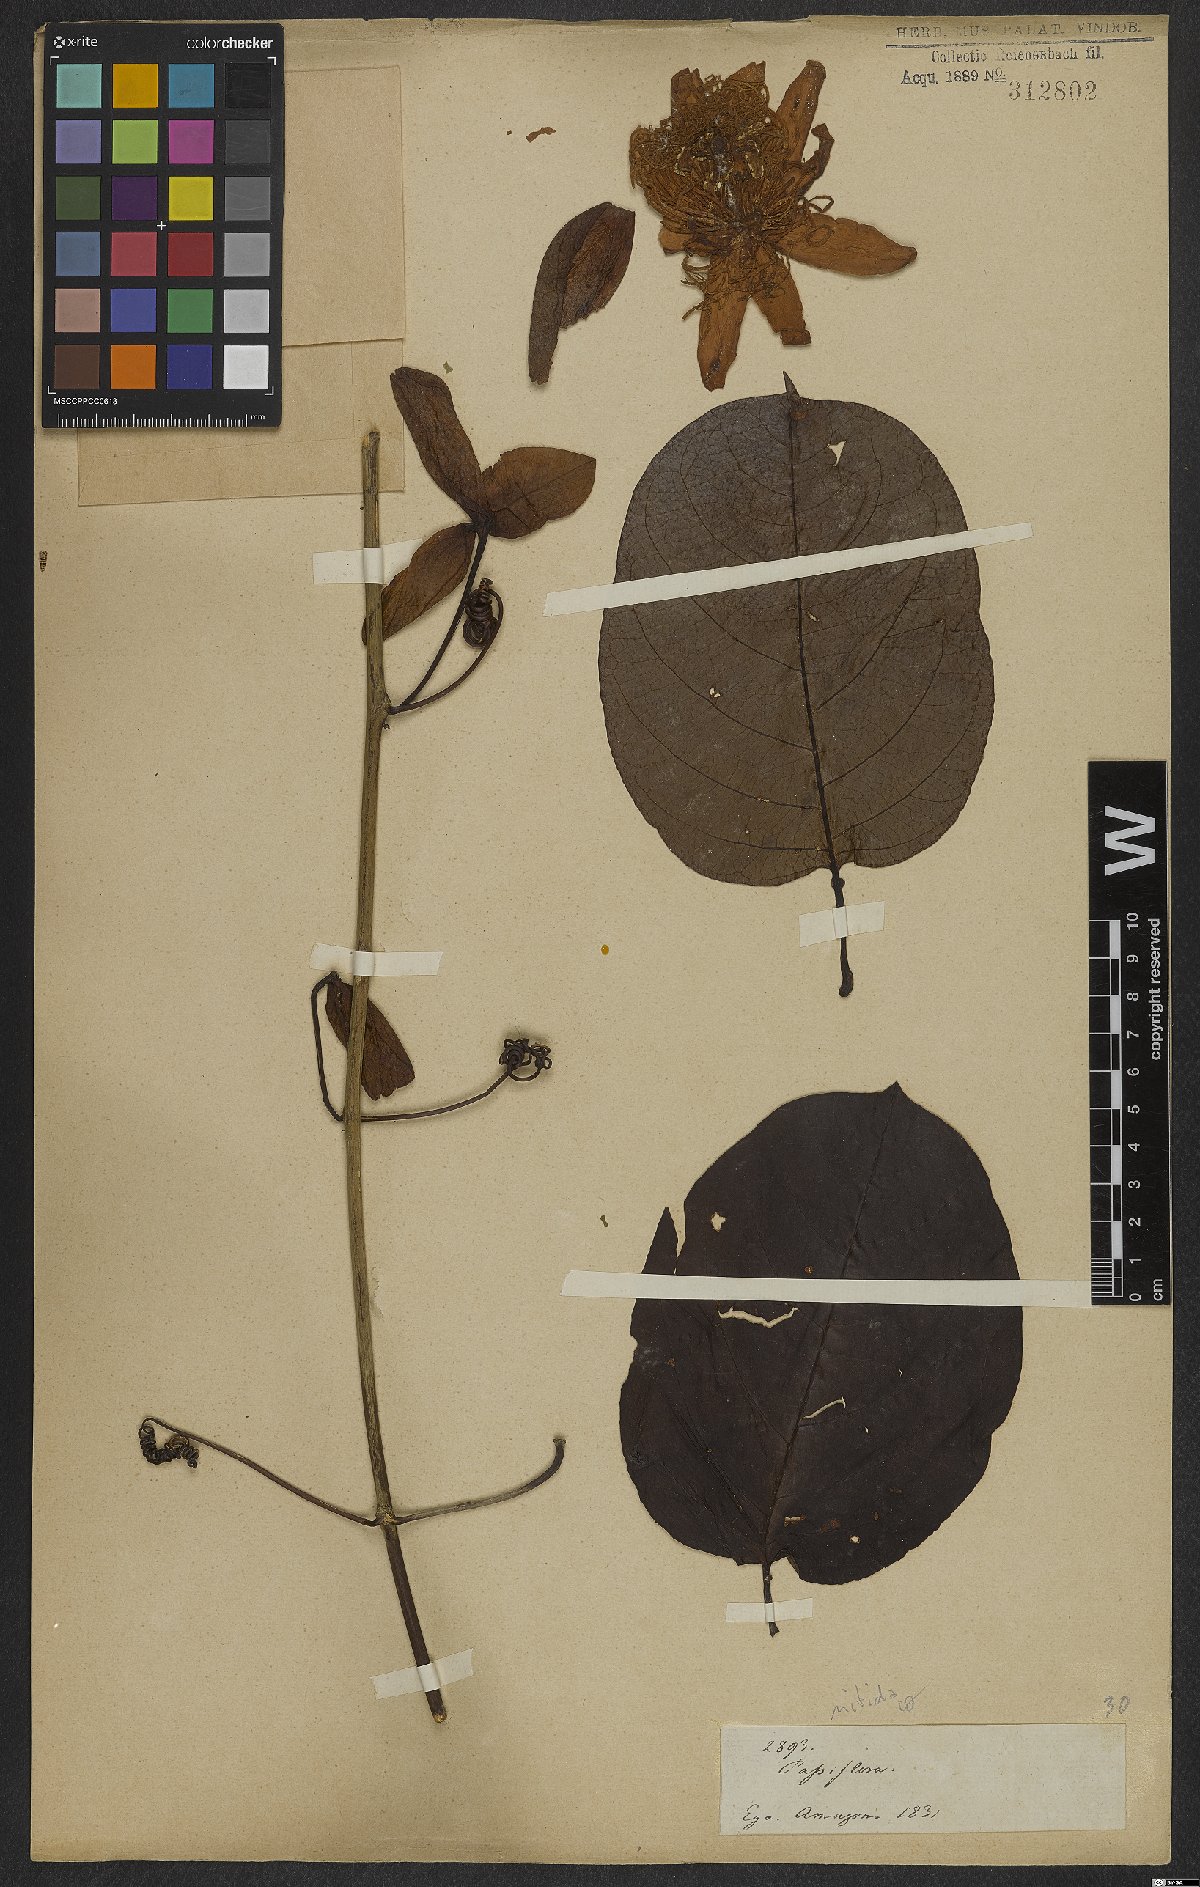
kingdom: Plantae
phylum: Tracheophyta
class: Magnoliopsida
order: Malpighiales
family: Passifloraceae
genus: Passiflora
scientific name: Passiflora nitida
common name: Bell-apple
